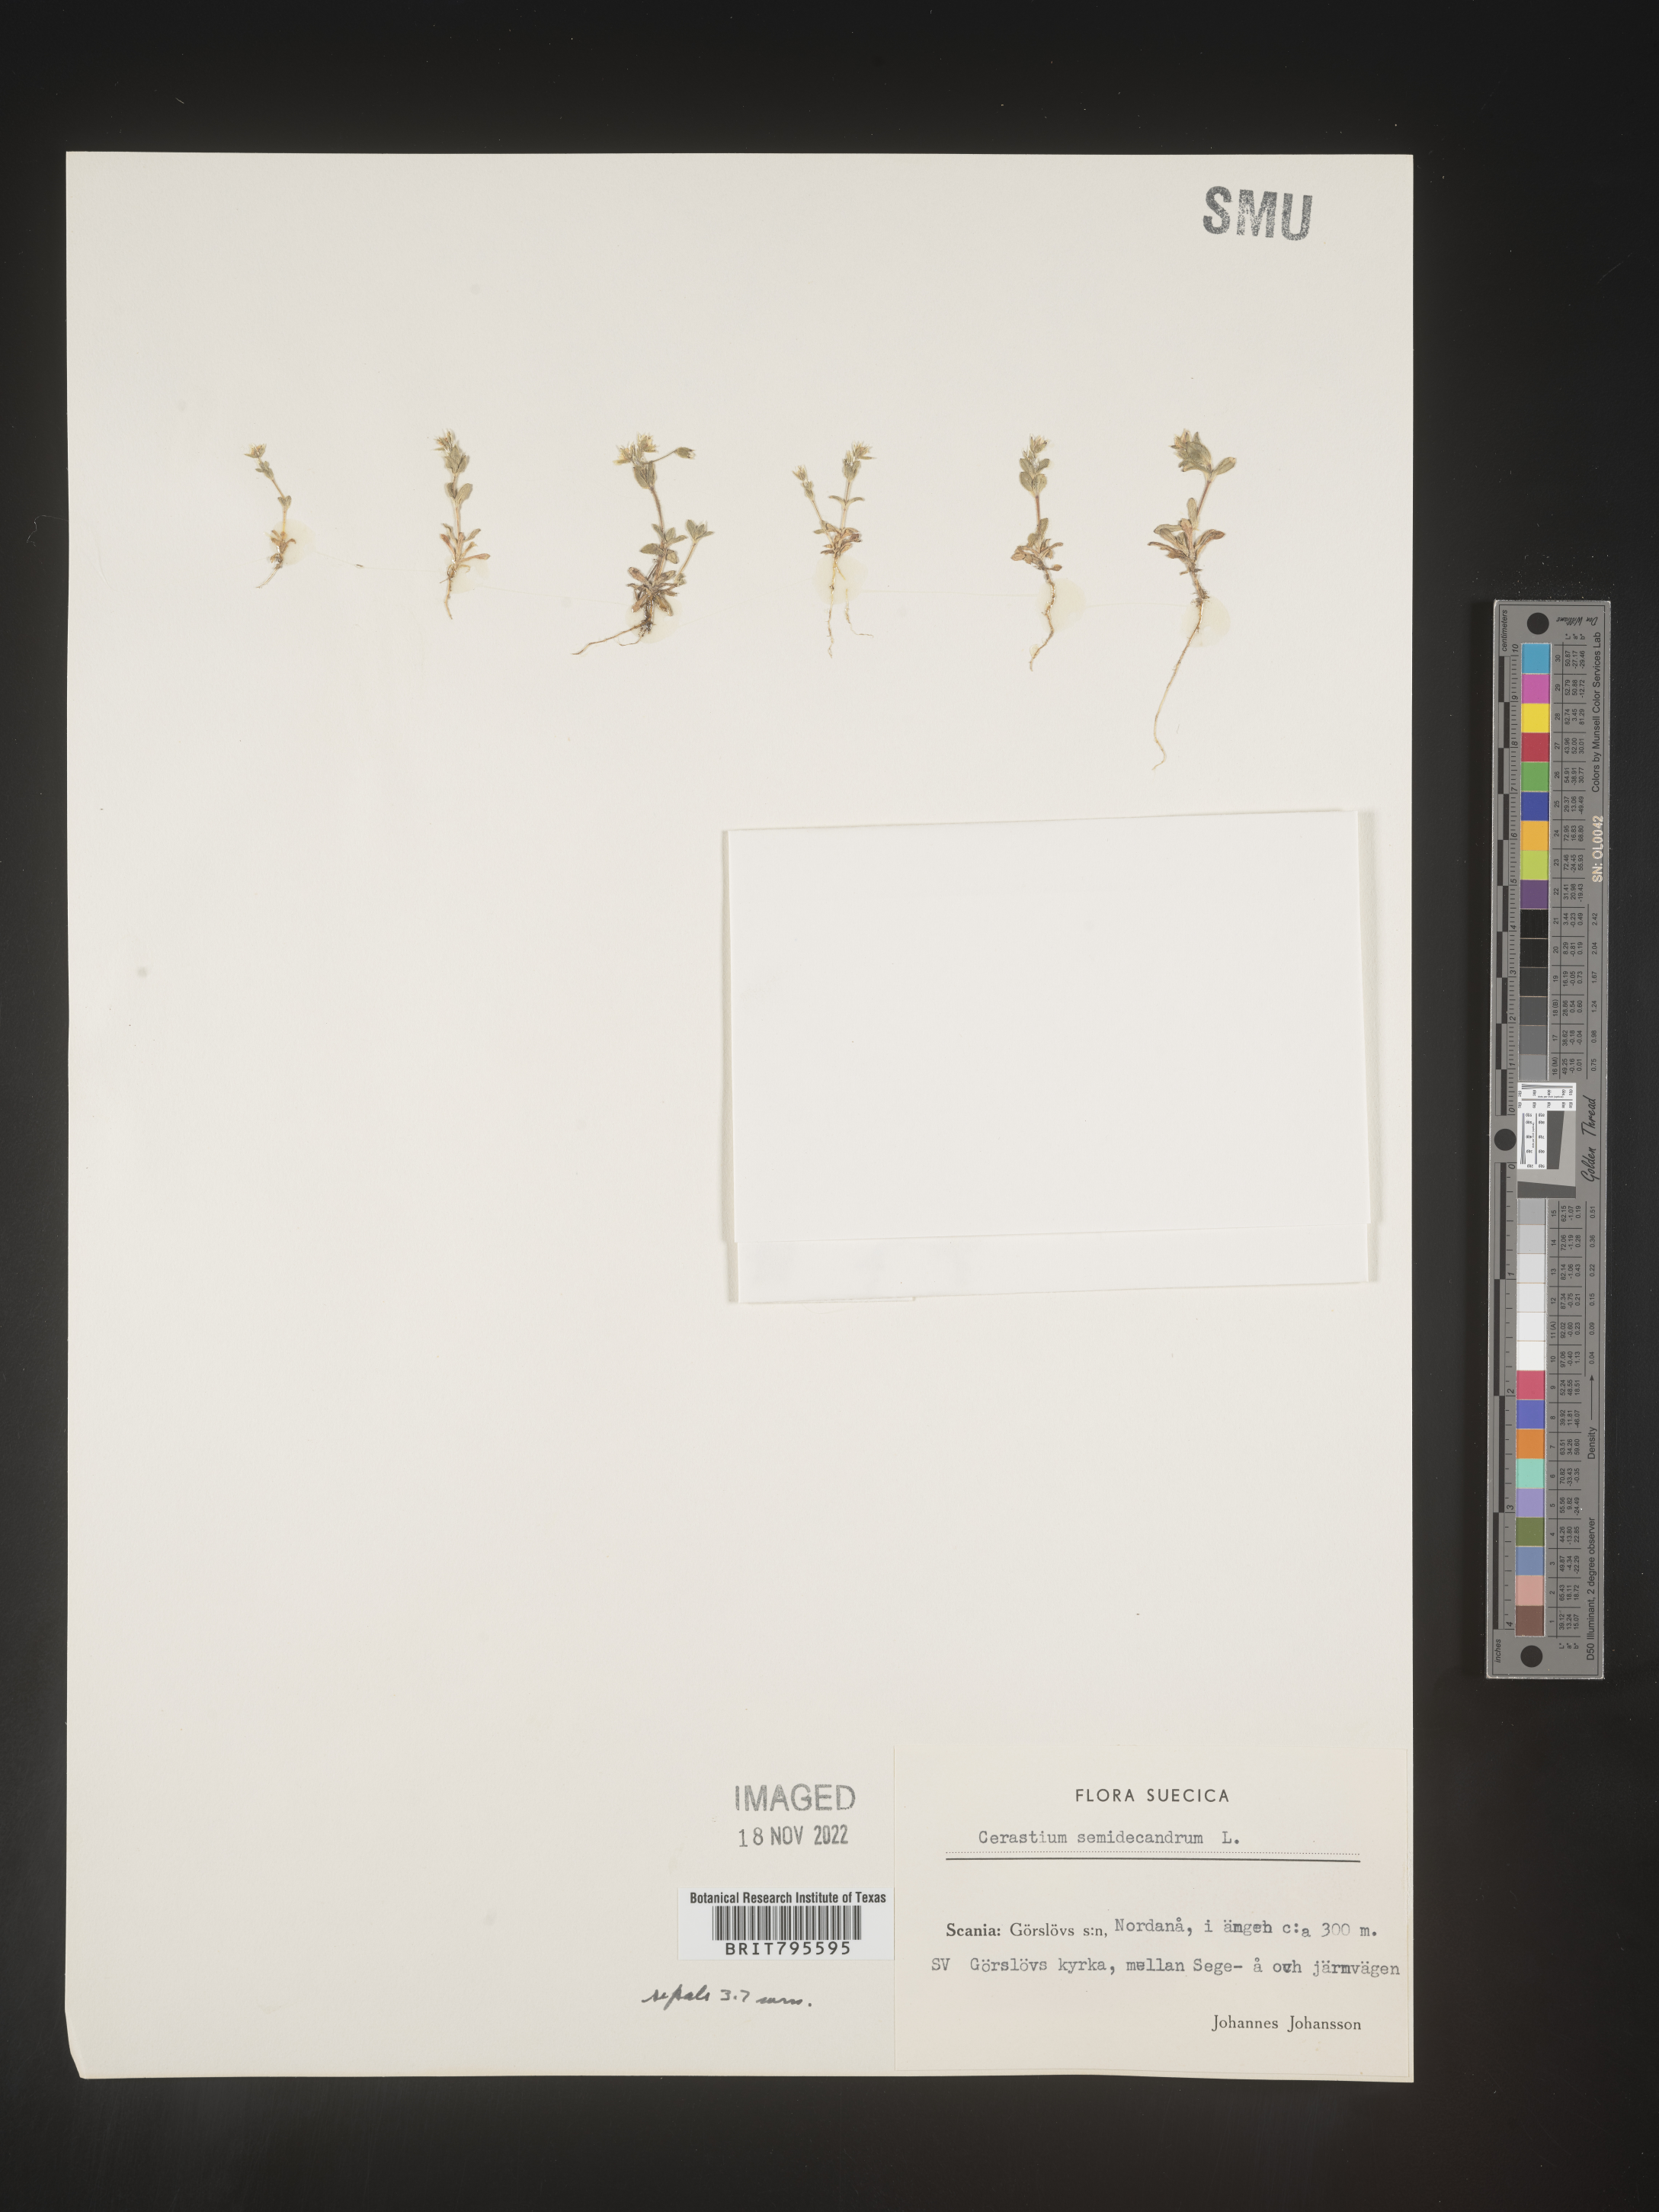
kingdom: Plantae
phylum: Tracheophyta
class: Magnoliopsida
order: Caryophyllales
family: Caryophyllaceae
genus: Cerastium
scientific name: Cerastium
